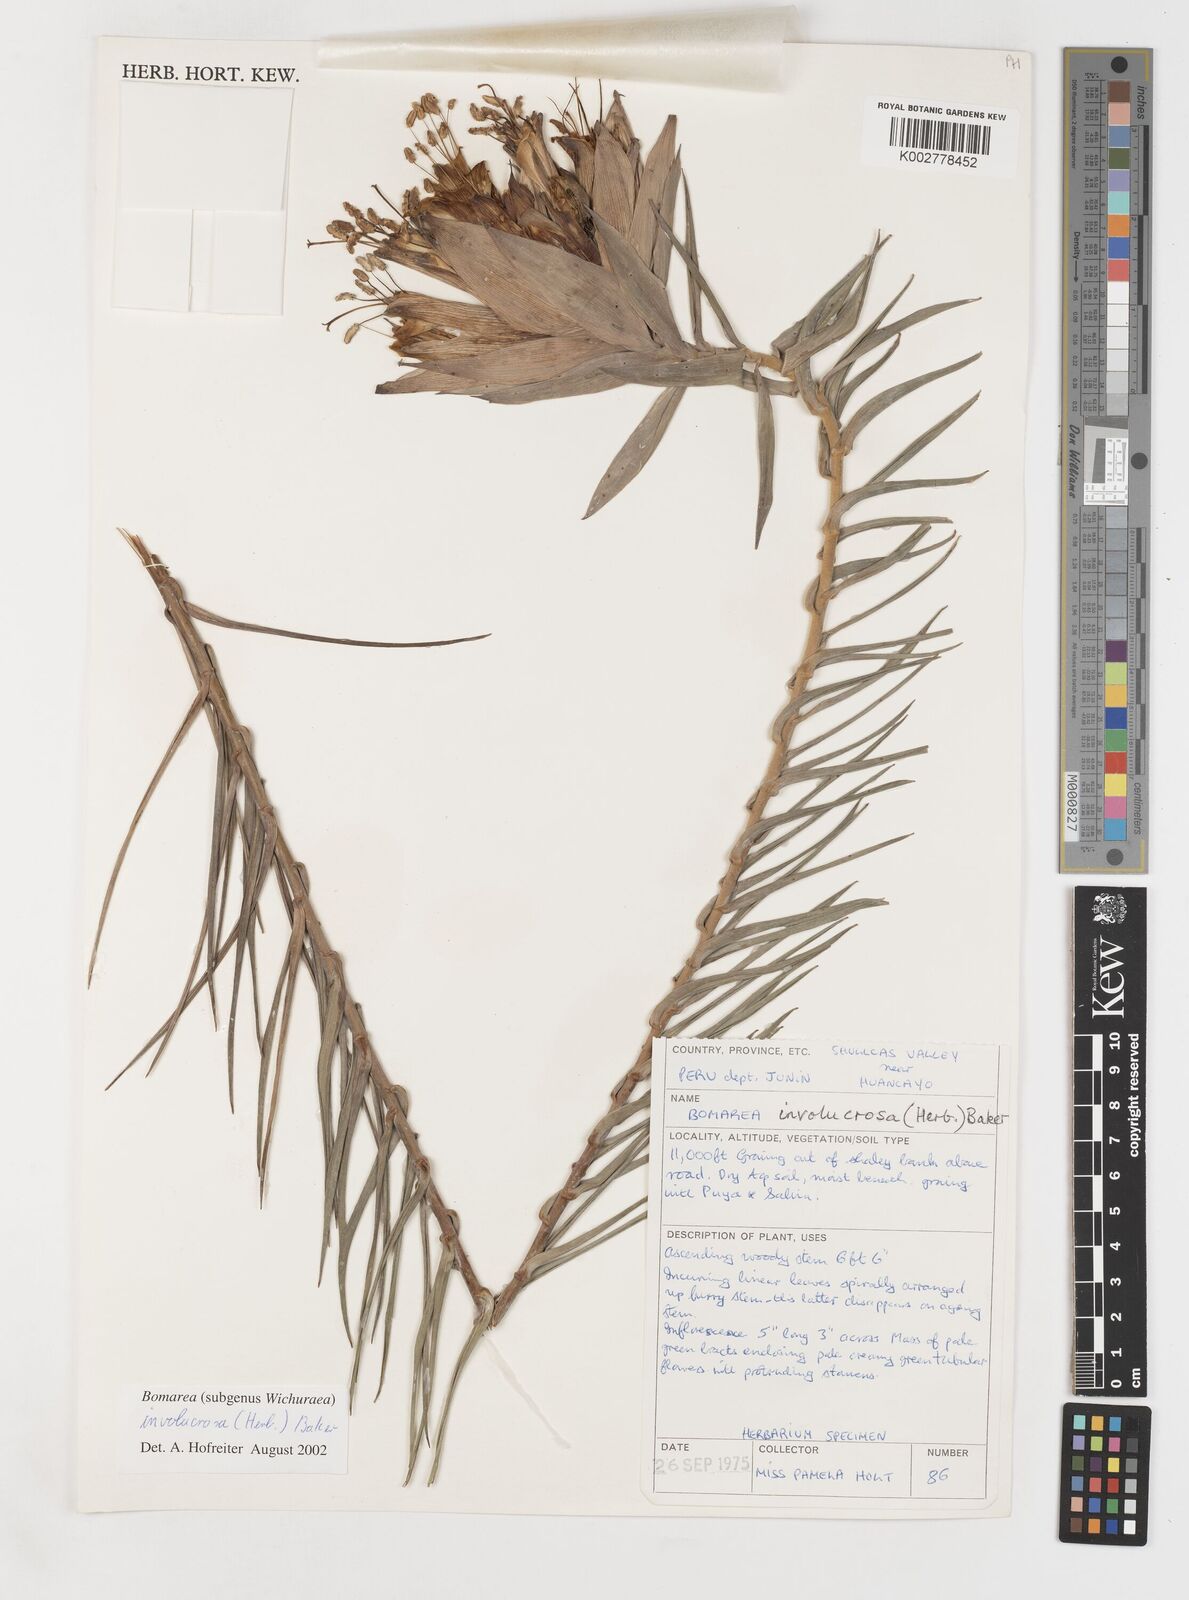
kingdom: Plantae
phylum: Tracheophyta
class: Liliopsida
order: Liliales
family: Alstroemeriaceae
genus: Bomarea
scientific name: Bomarea involucrosa
